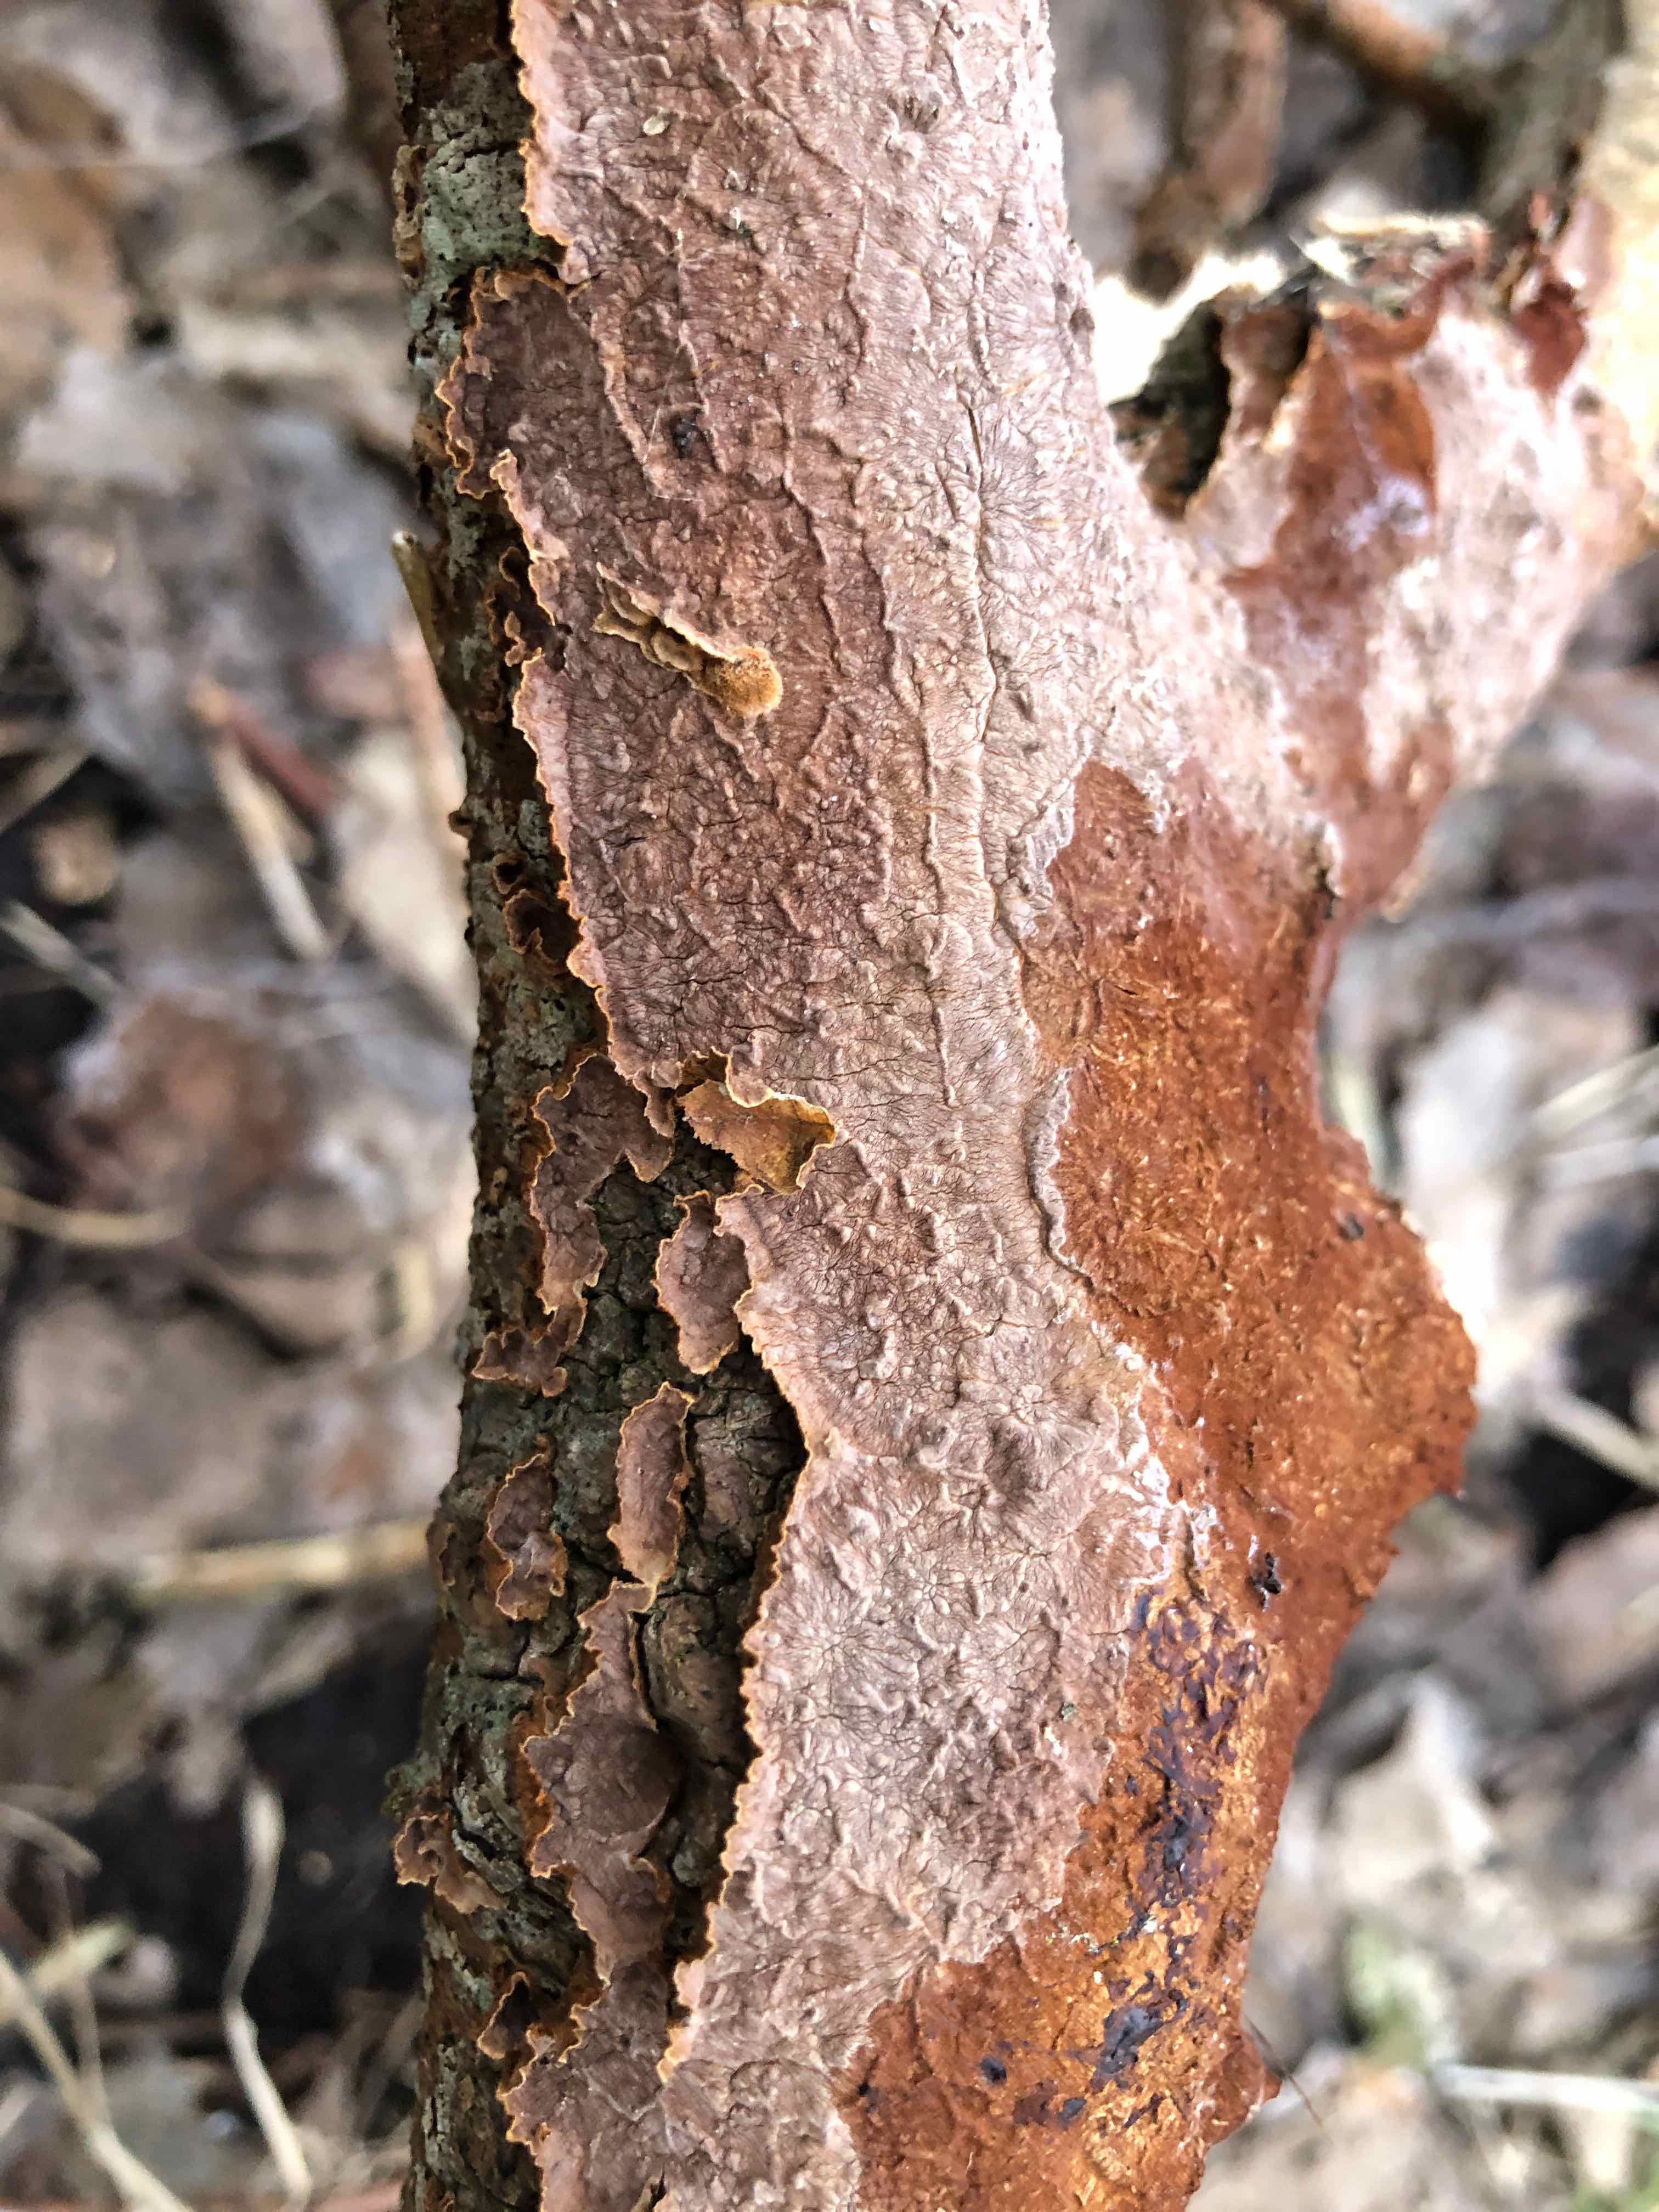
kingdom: Fungi
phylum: Basidiomycota
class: Agaricomycetes
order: Hymenochaetales
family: Hymenochaetaceae
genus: Hydnoporia
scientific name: Hydnoporia tabacina
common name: tobaksbrun ruslædersvamp
